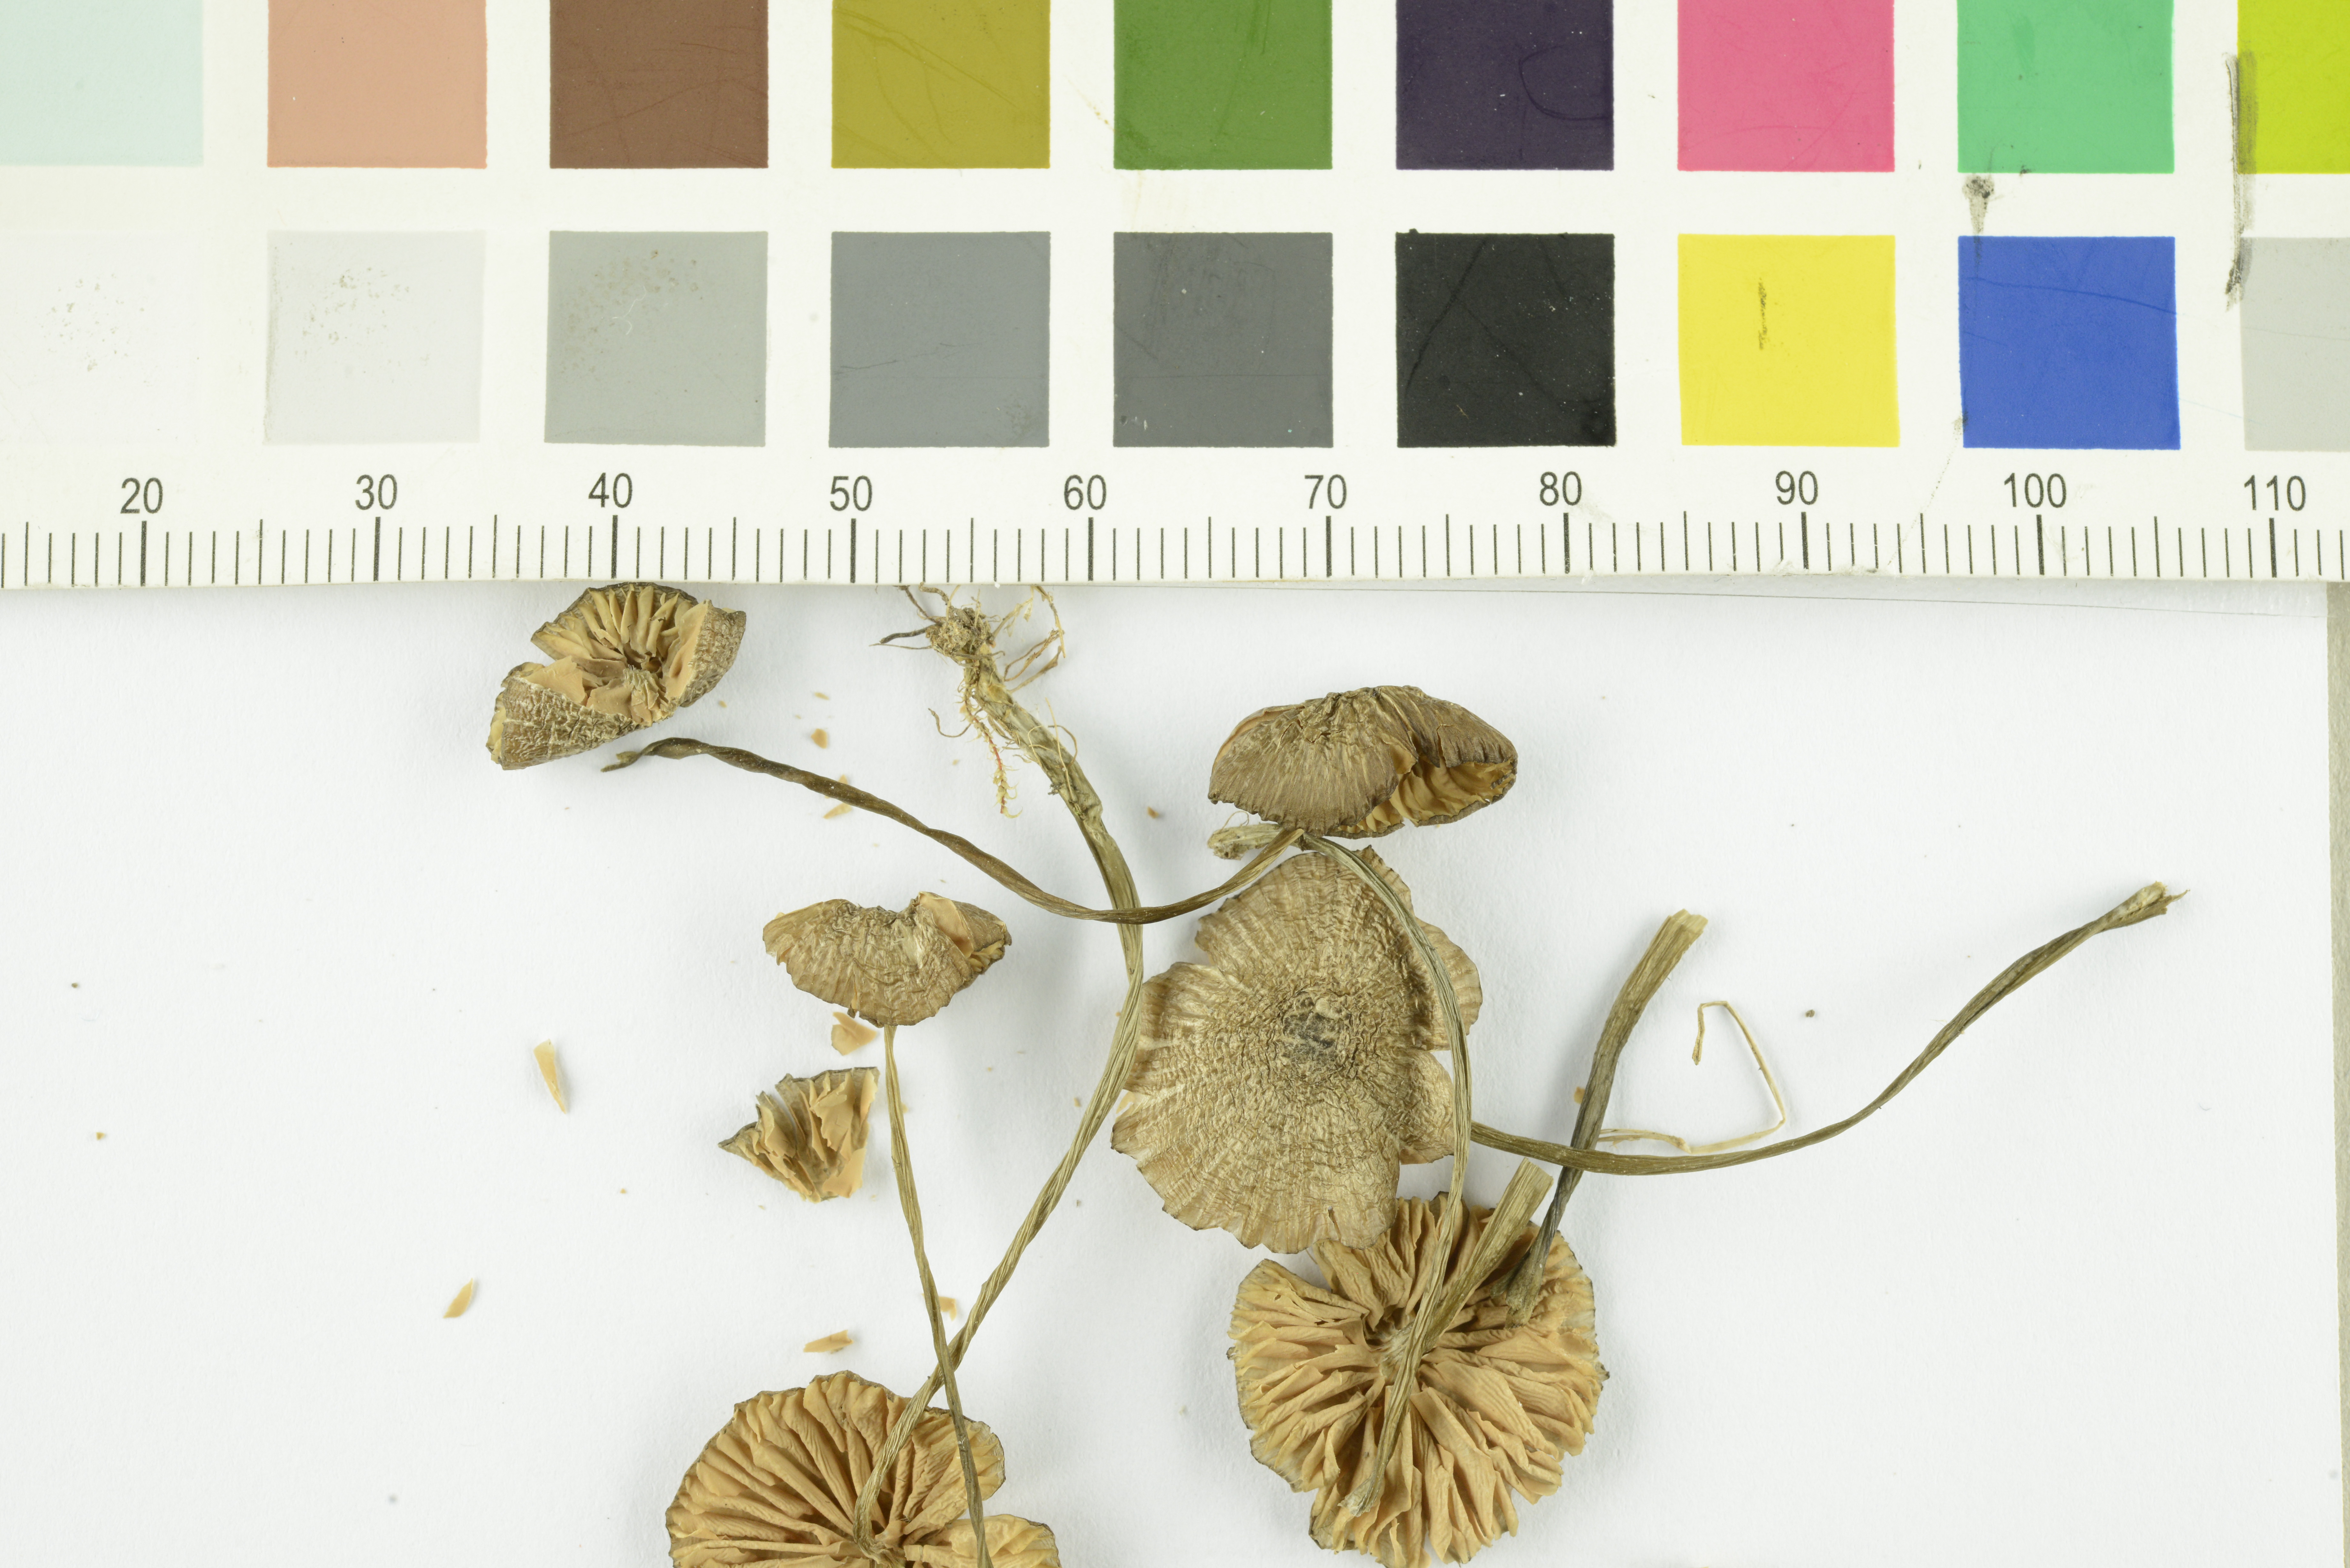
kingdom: Fungi
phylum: Basidiomycota
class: Agaricomycetes
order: Agaricales
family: Entolomataceae
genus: Entoloma
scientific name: Entoloma lividocyanulum
